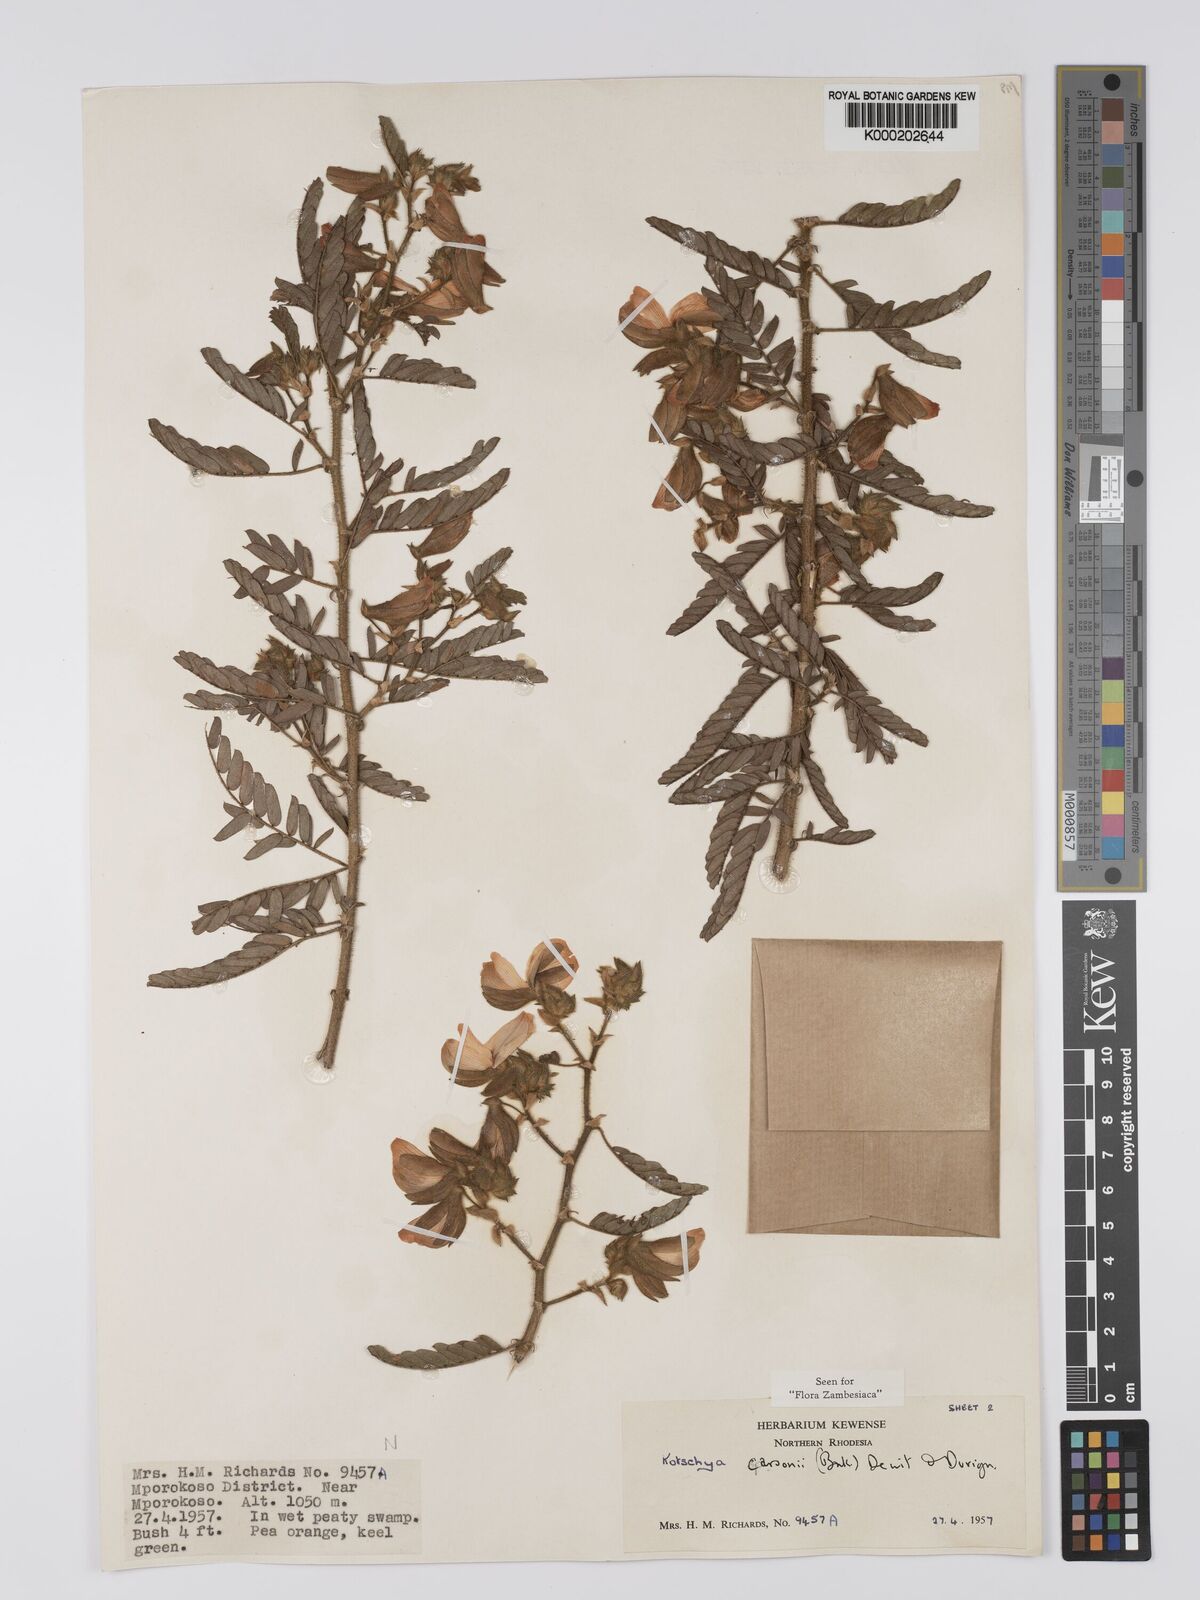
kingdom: Plantae
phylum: Tracheophyta
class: Magnoliopsida
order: Fabales
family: Fabaceae
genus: Kotschya
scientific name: Kotschya carsonii
